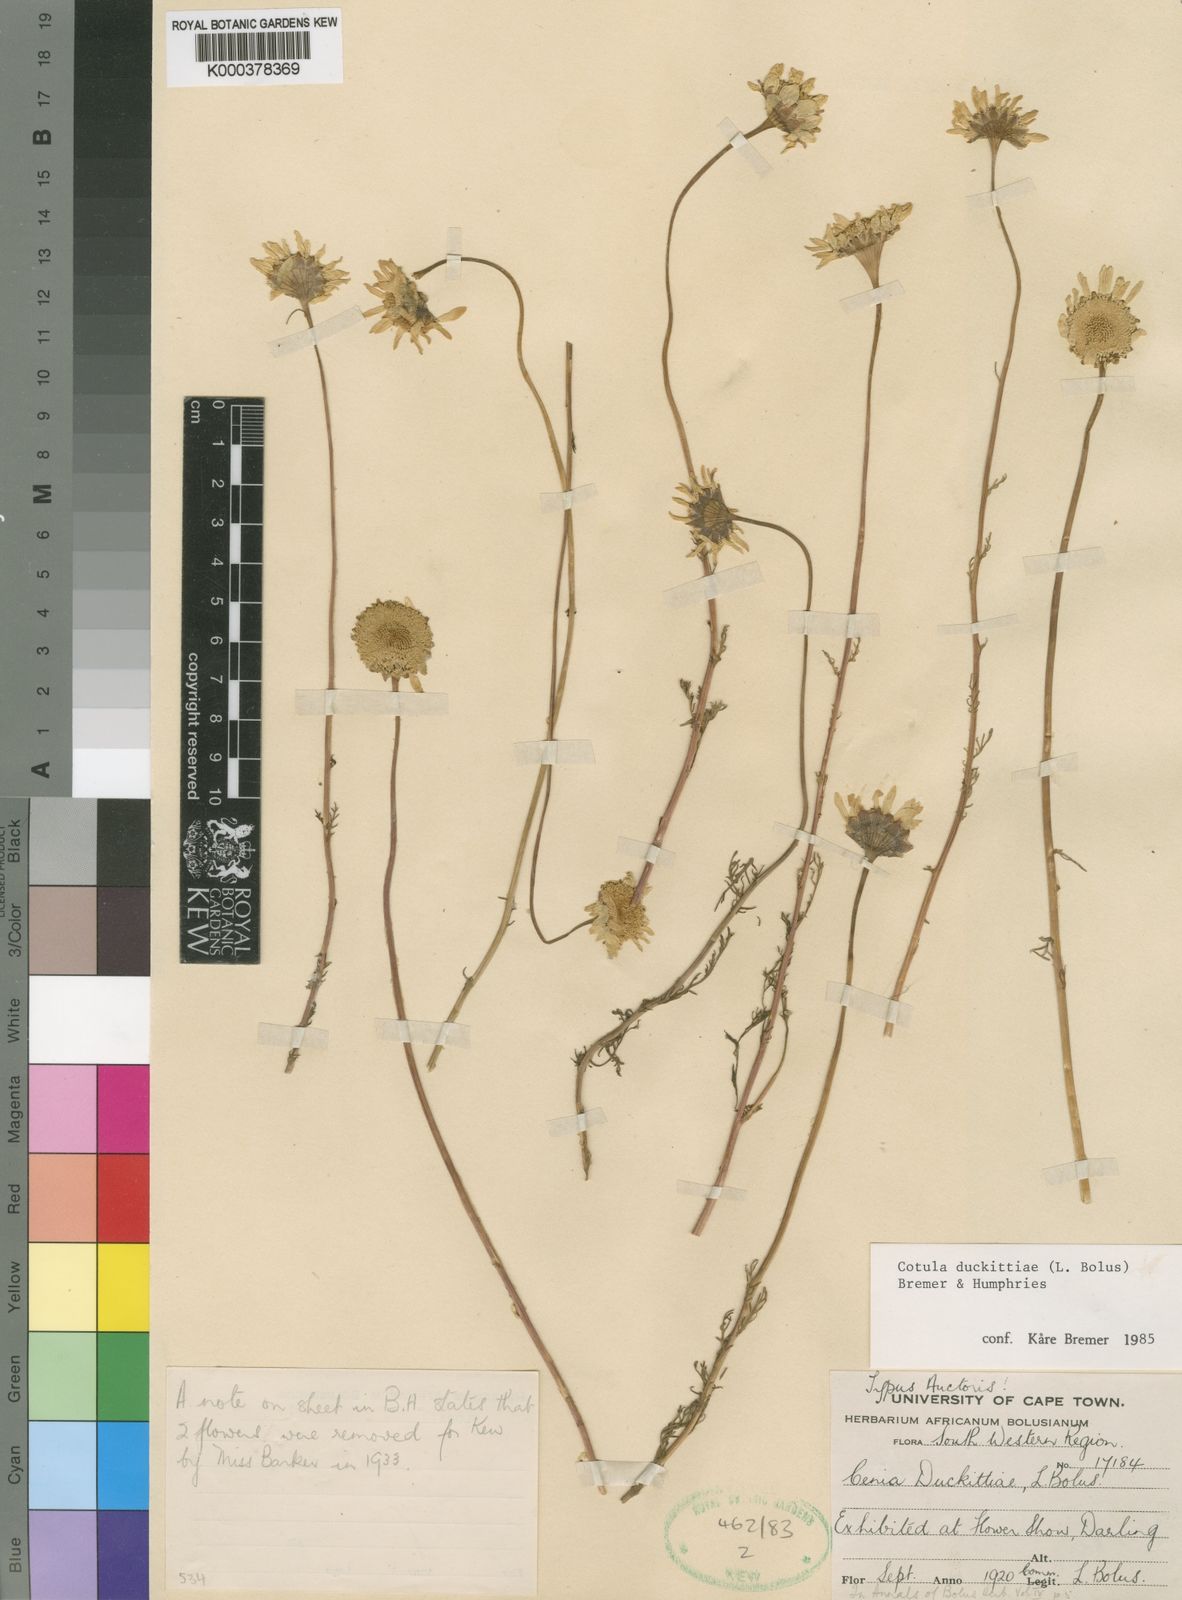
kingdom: Plantae
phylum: Tracheophyta
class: Magnoliopsida
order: Asterales
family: Asteraceae
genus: Cotula
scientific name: Cotula duckittiae
